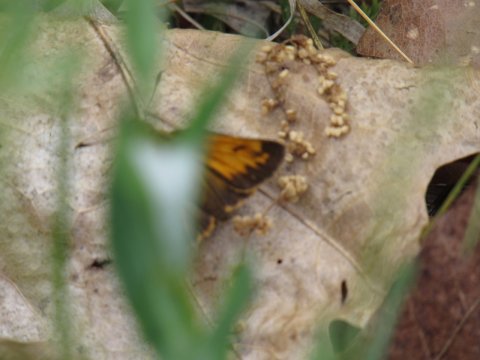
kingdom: Animalia
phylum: Arthropoda
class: Insecta
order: Lepidoptera
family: Hesperiidae
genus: Lon
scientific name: Lon hobomok
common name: Hobomok Skipper
